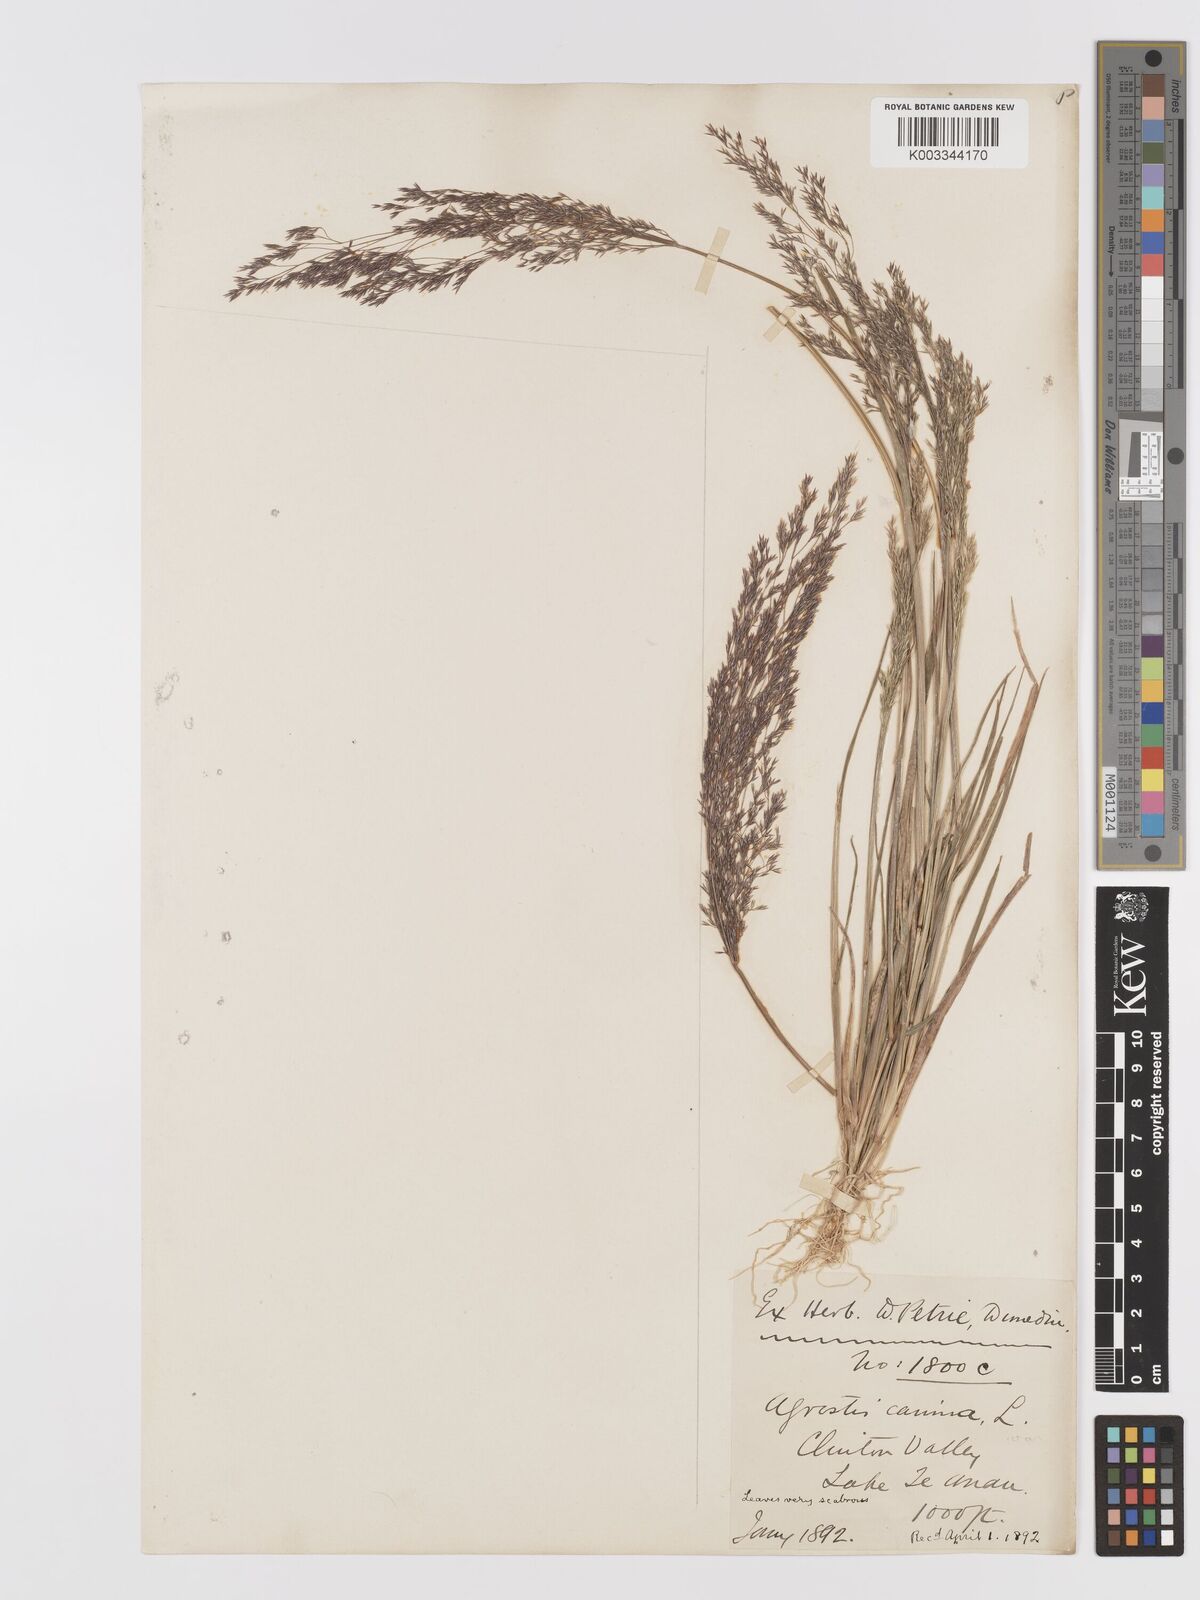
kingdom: Plantae
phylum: Tracheophyta
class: Liliopsida
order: Poales
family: Poaceae
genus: Agrostis
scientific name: Agrostis personata
